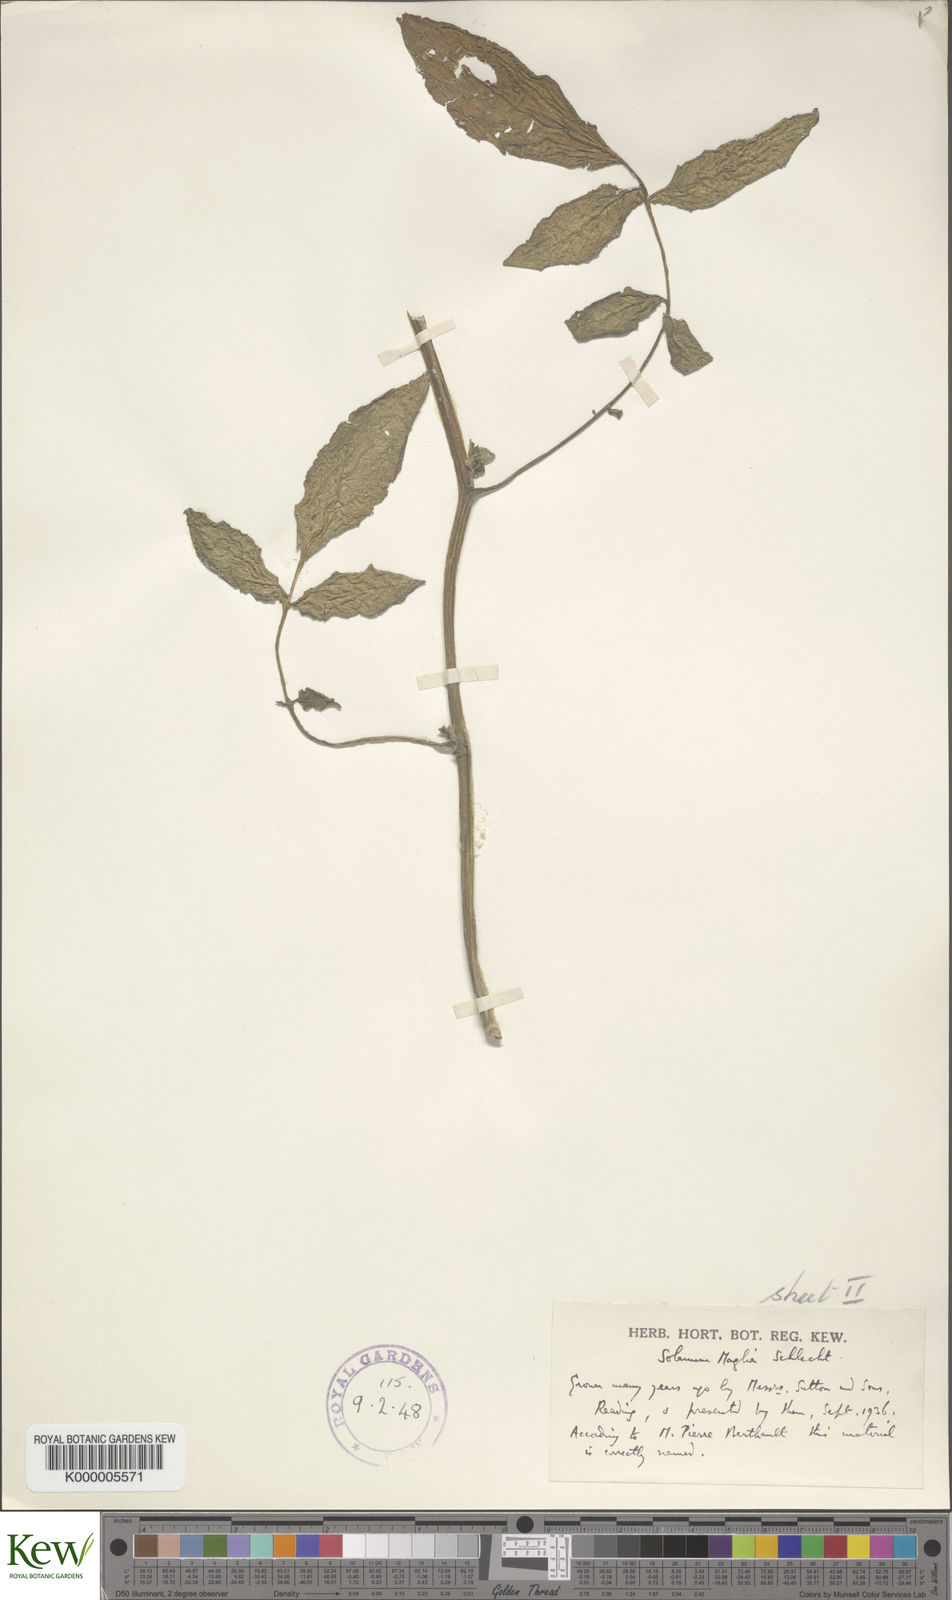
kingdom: Plantae
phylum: Tracheophyta
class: Magnoliopsida
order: Solanales
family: Solanaceae
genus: Solanum
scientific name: Solanum maglia
